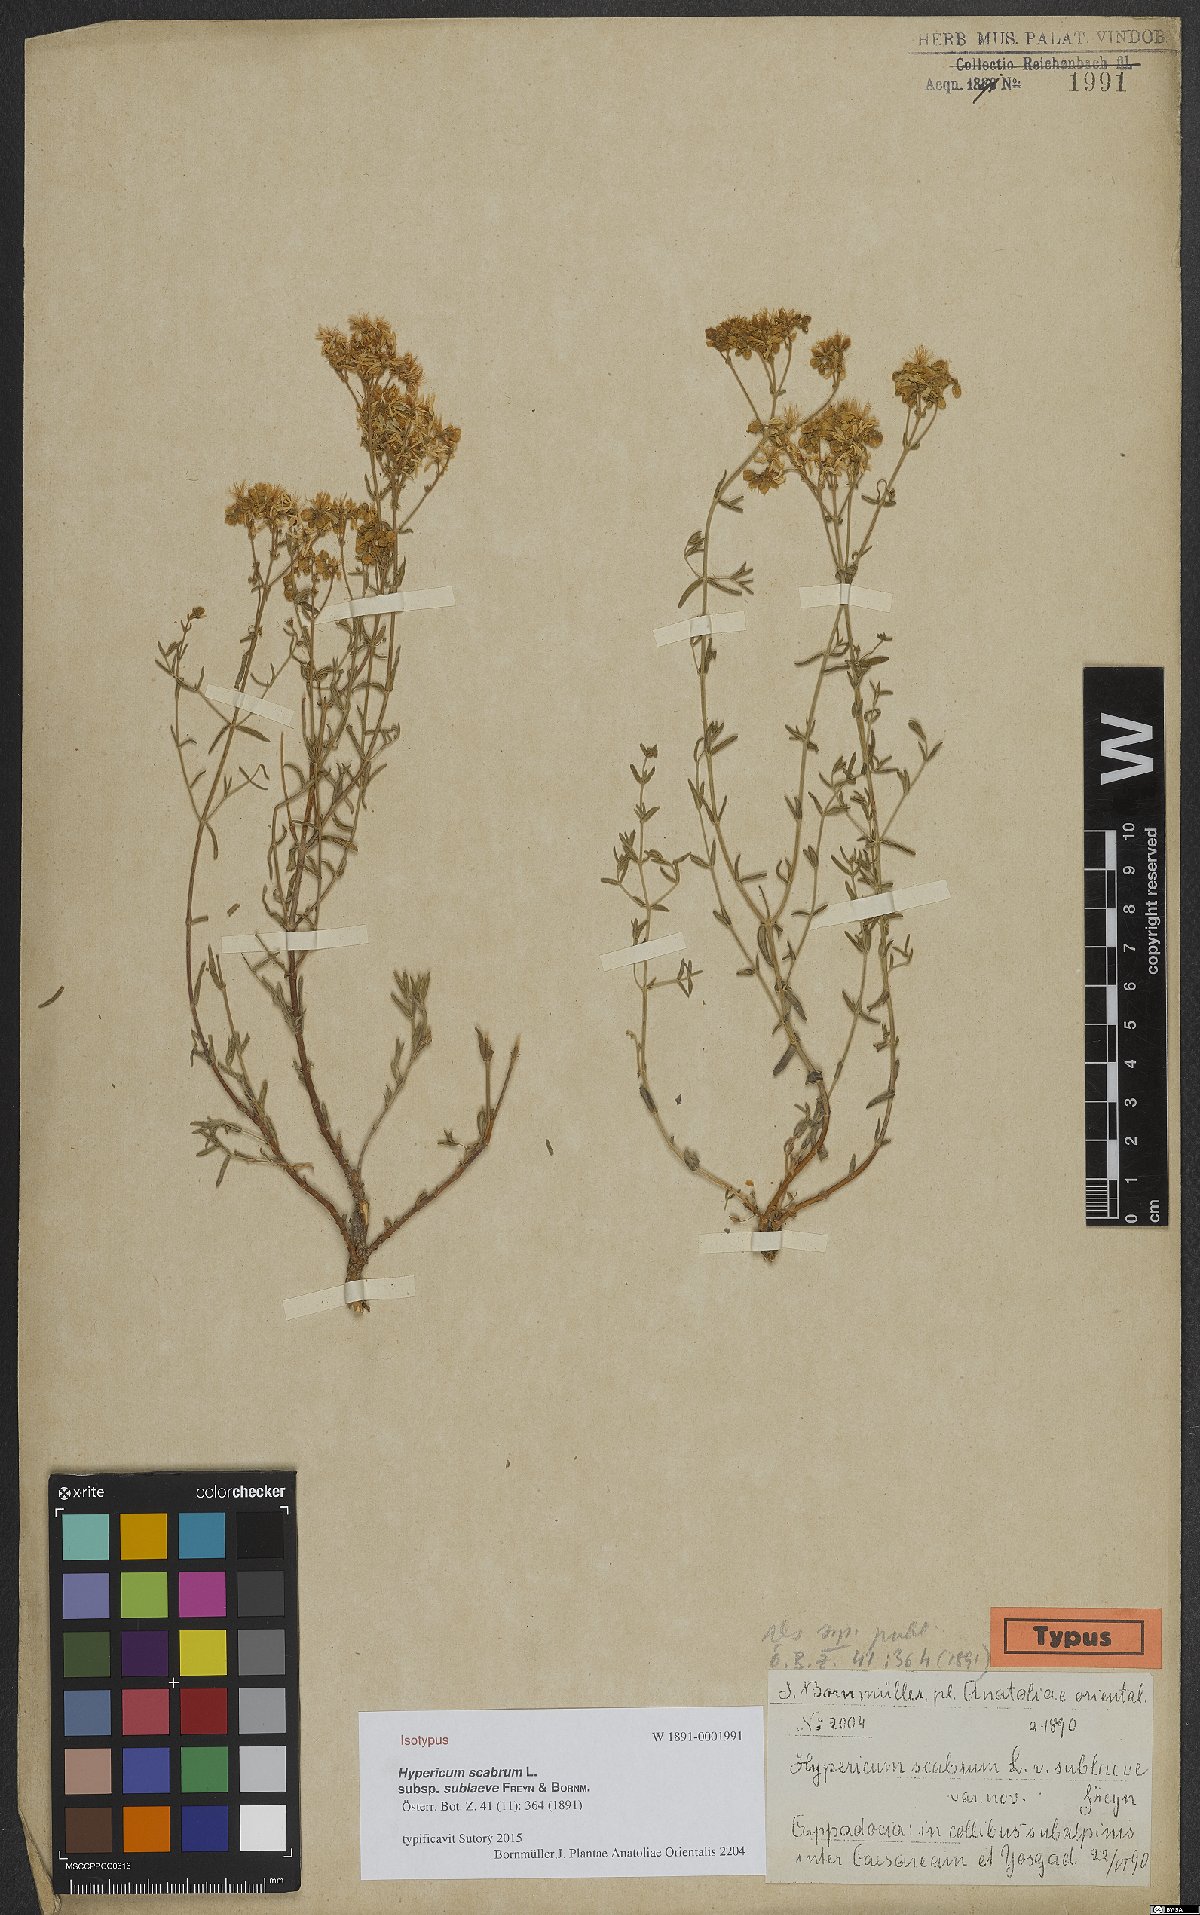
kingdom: Plantae
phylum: Tracheophyta
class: Magnoliopsida
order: Malpighiales
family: Hypericaceae
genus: Hypericum
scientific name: Hypericum scabrum
